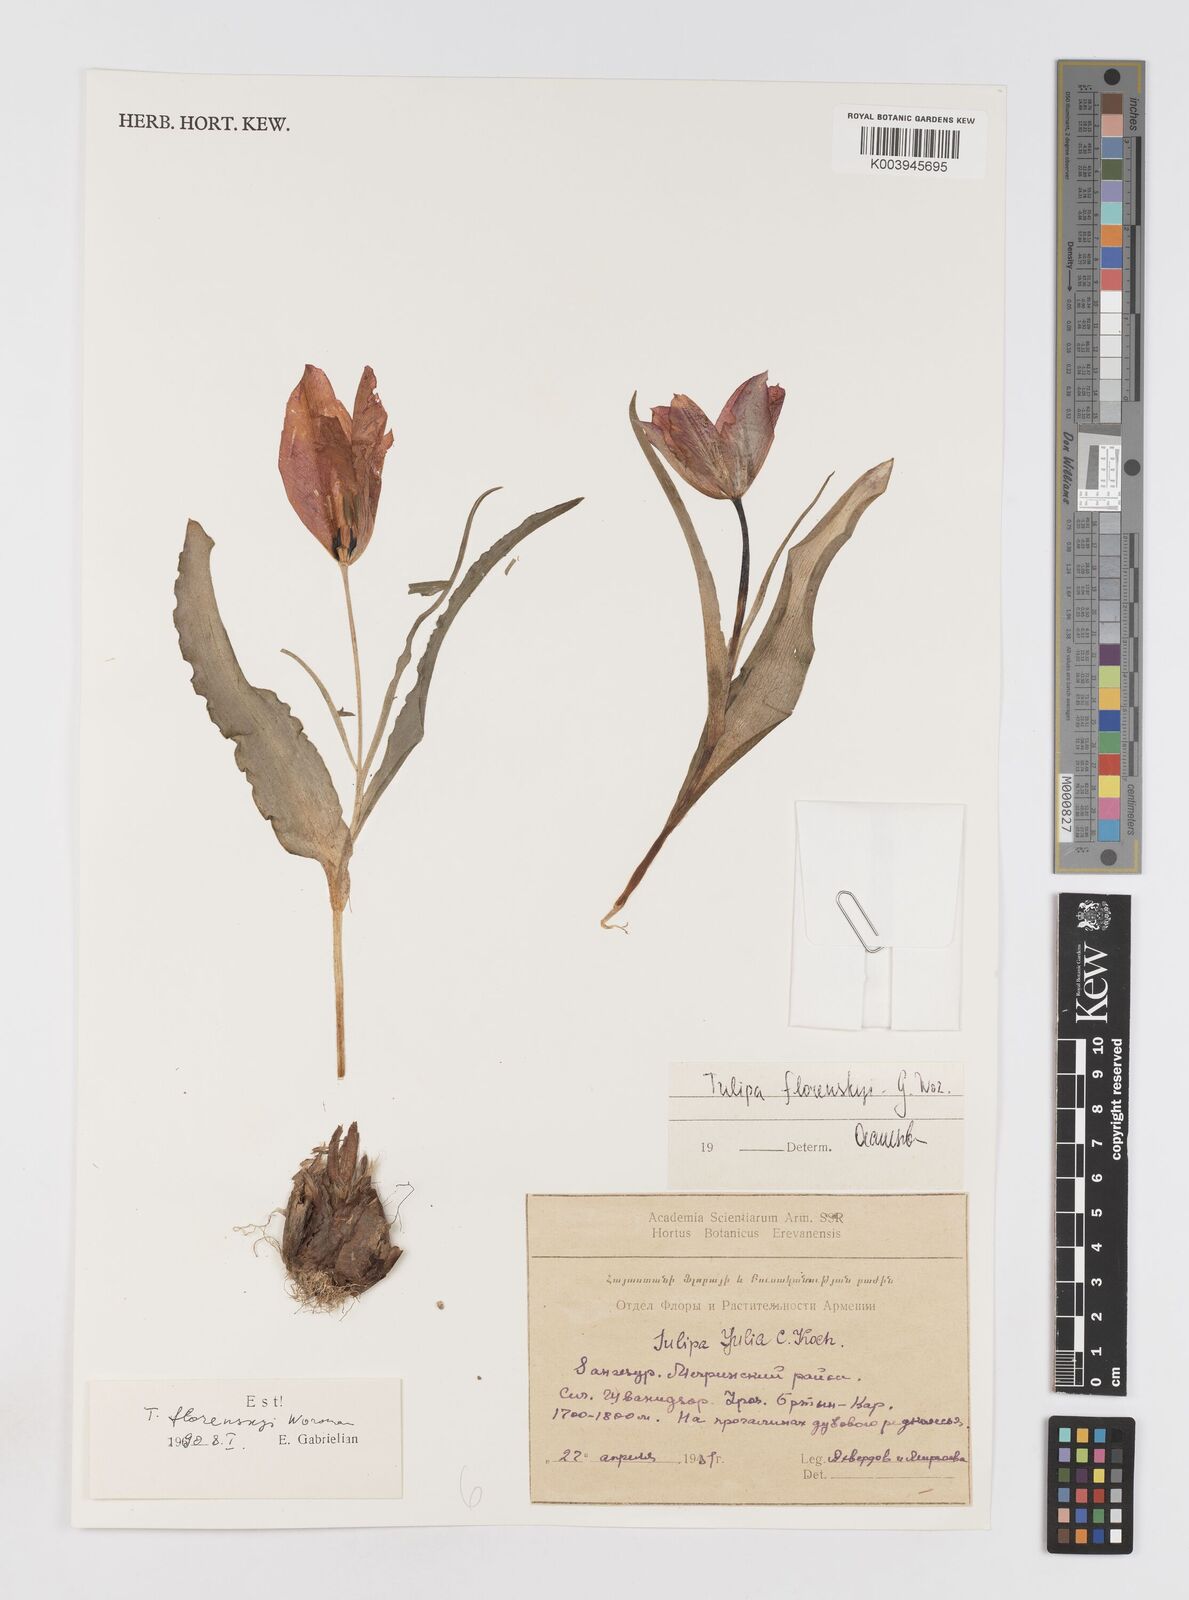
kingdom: Plantae
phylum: Tracheophyta
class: Liliopsida
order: Liliales
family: Liliaceae
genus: Tulipa
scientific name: Tulipa armena
